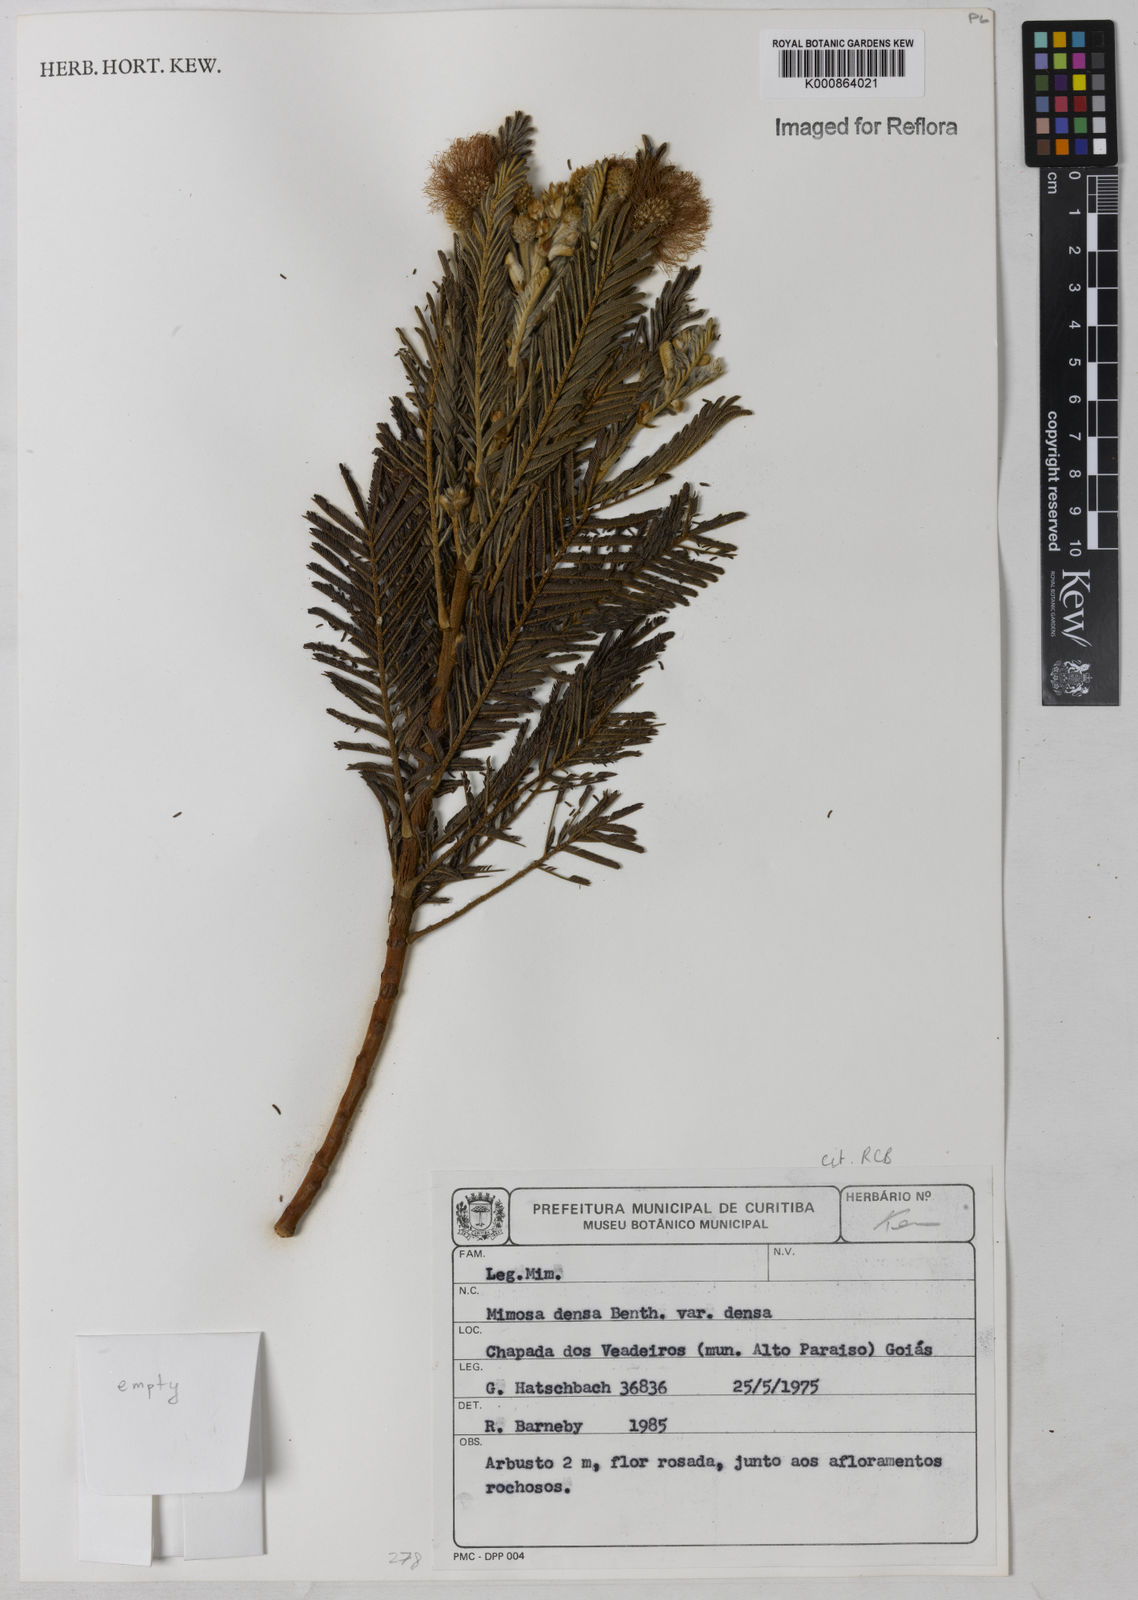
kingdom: Plantae
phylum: Tracheophyta
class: Magnoliopsida
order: Fabales
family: Fabaceae
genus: Mimosa
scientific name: Mimosa densa
